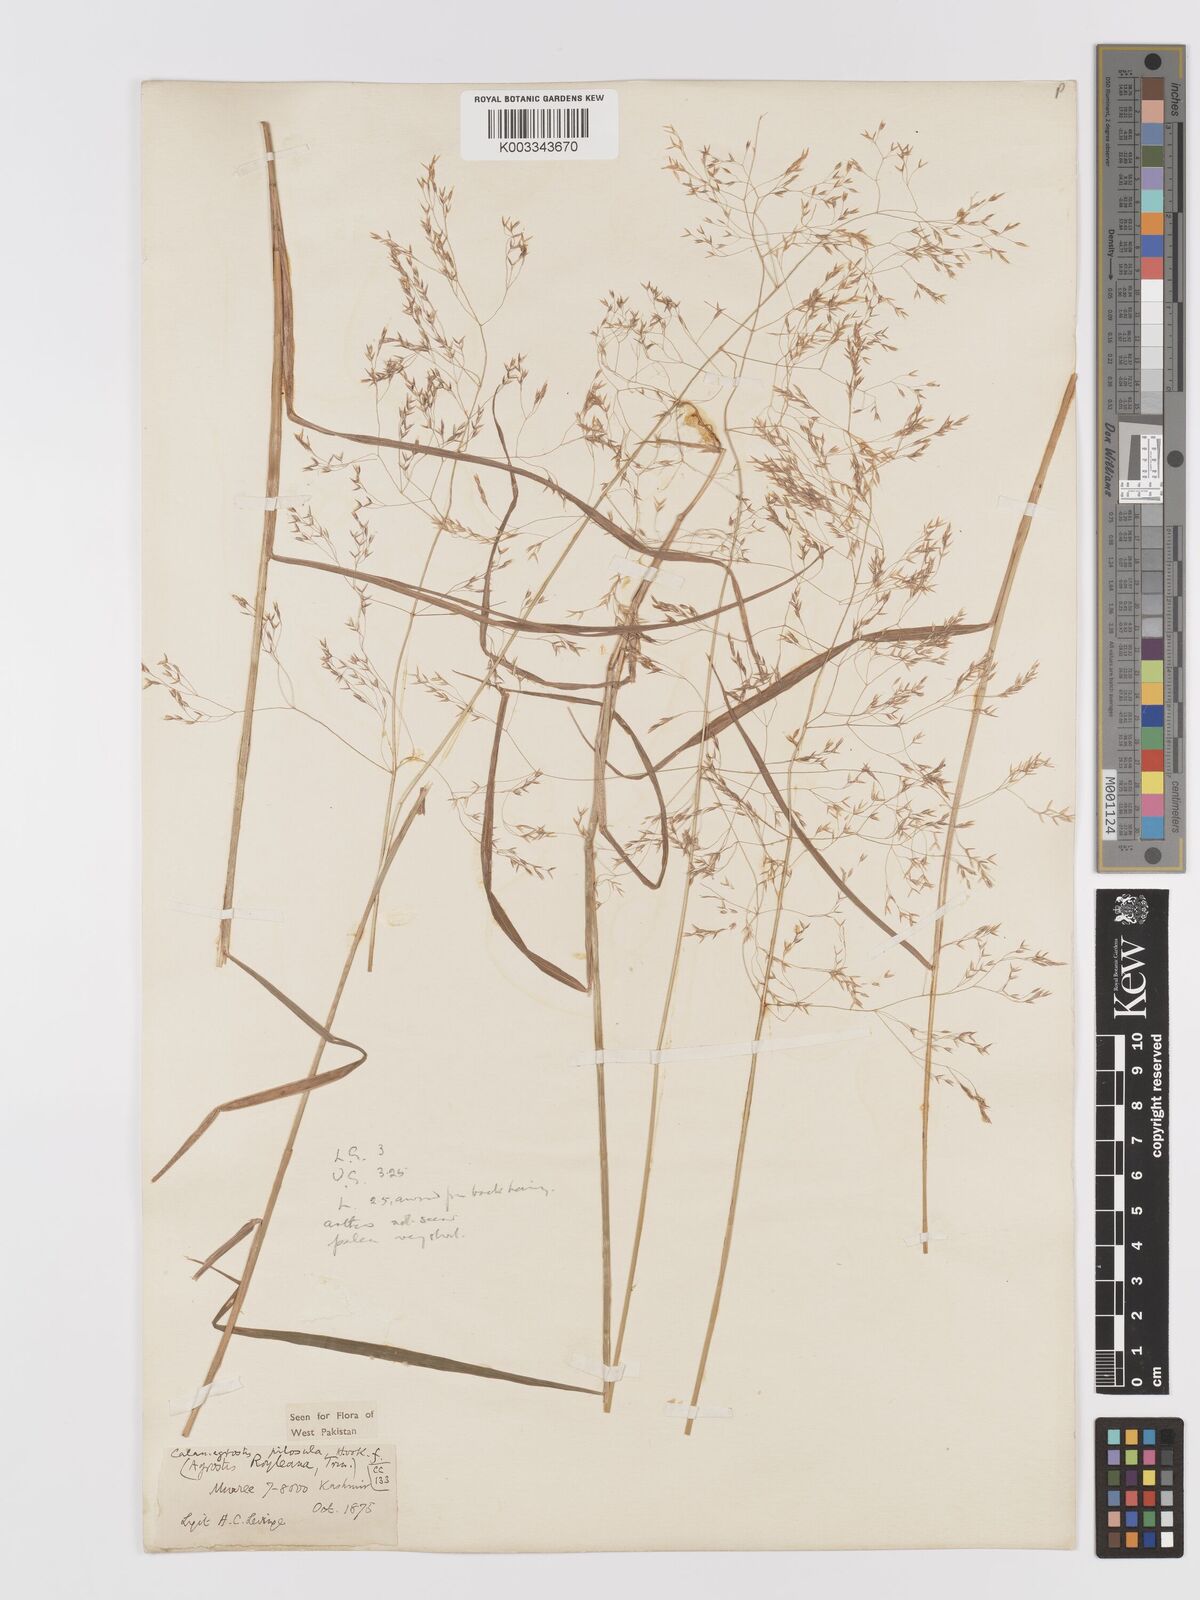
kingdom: Plantae
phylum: Tracheophyta
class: Liliopsida
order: Poales
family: Poaceae
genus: Agrostis
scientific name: Agrostis pilosula
